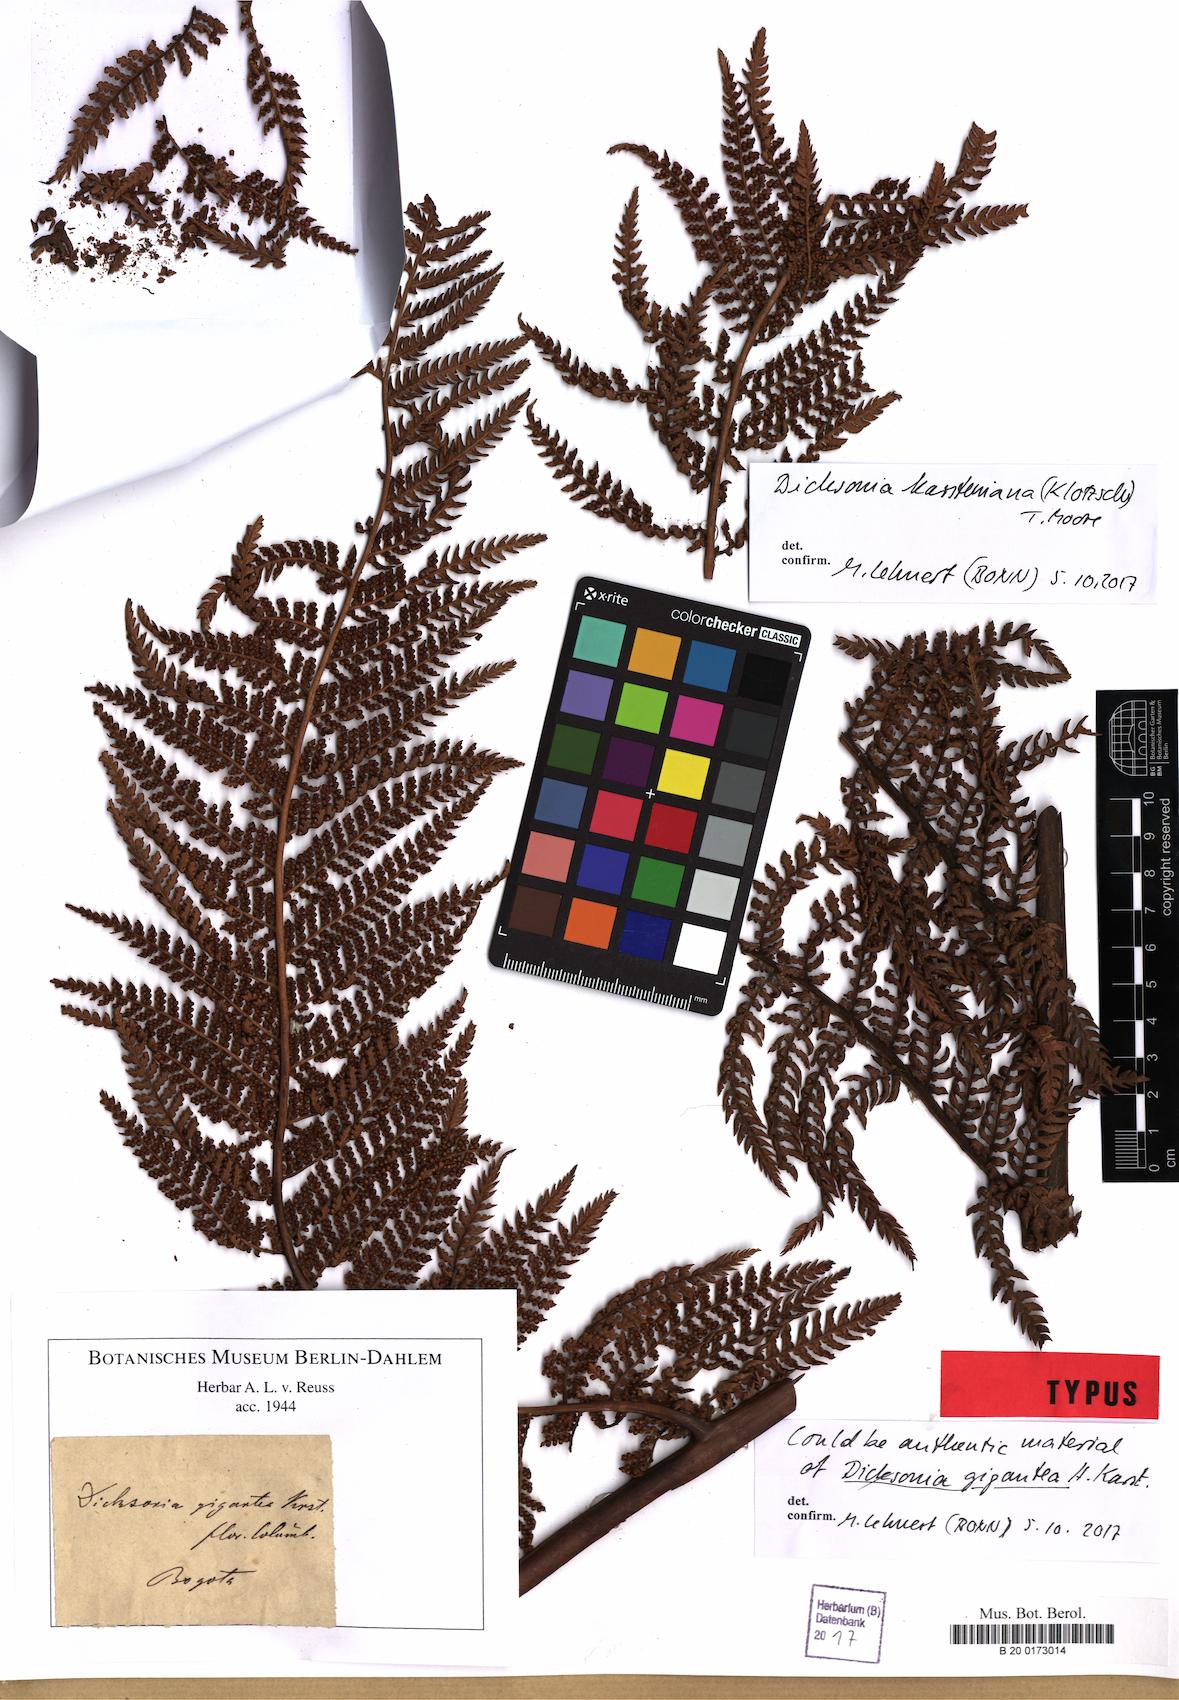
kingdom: Plantae
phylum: Tracheophyta
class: Polypodiopsida
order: Cyatheales
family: Dicksoniaceae
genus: Dicksonia
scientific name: Dicksonia karsteniana
